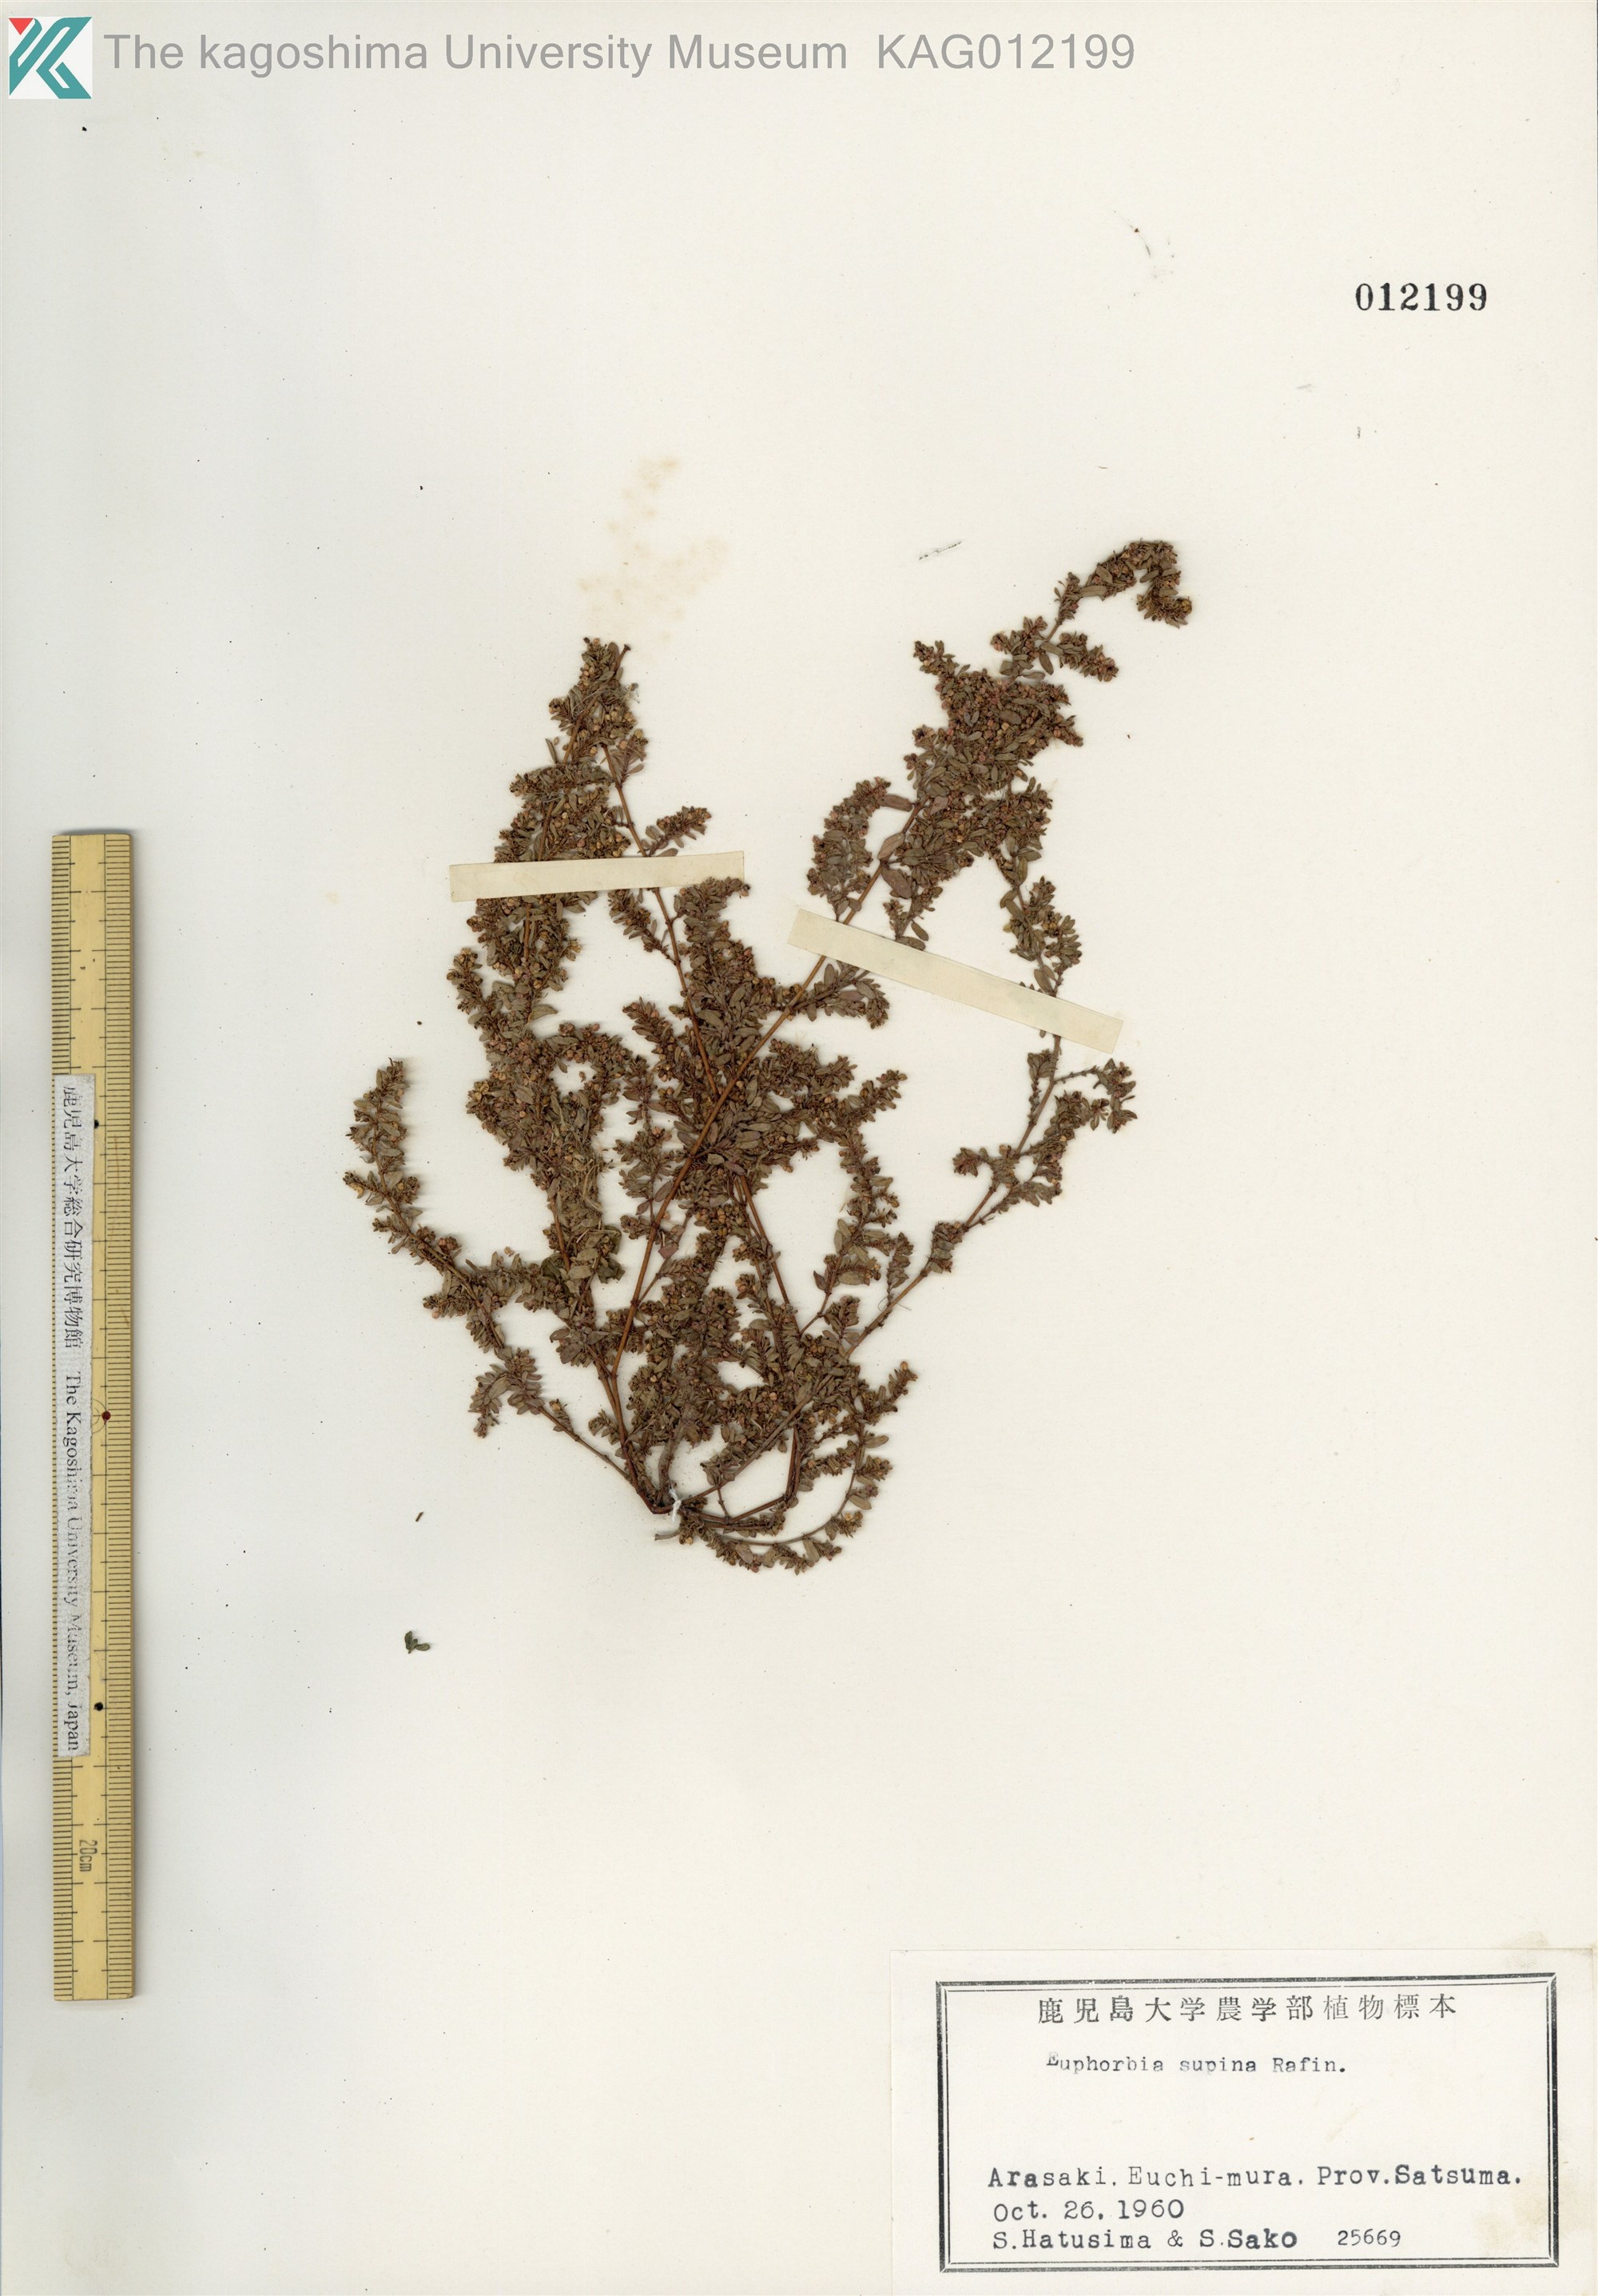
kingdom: Plantae
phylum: Tracheophyta
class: Magnoliopsida
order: Malpighiales
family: Euphorbiaceae
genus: Euphorbia
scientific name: Euphorbia maculata
